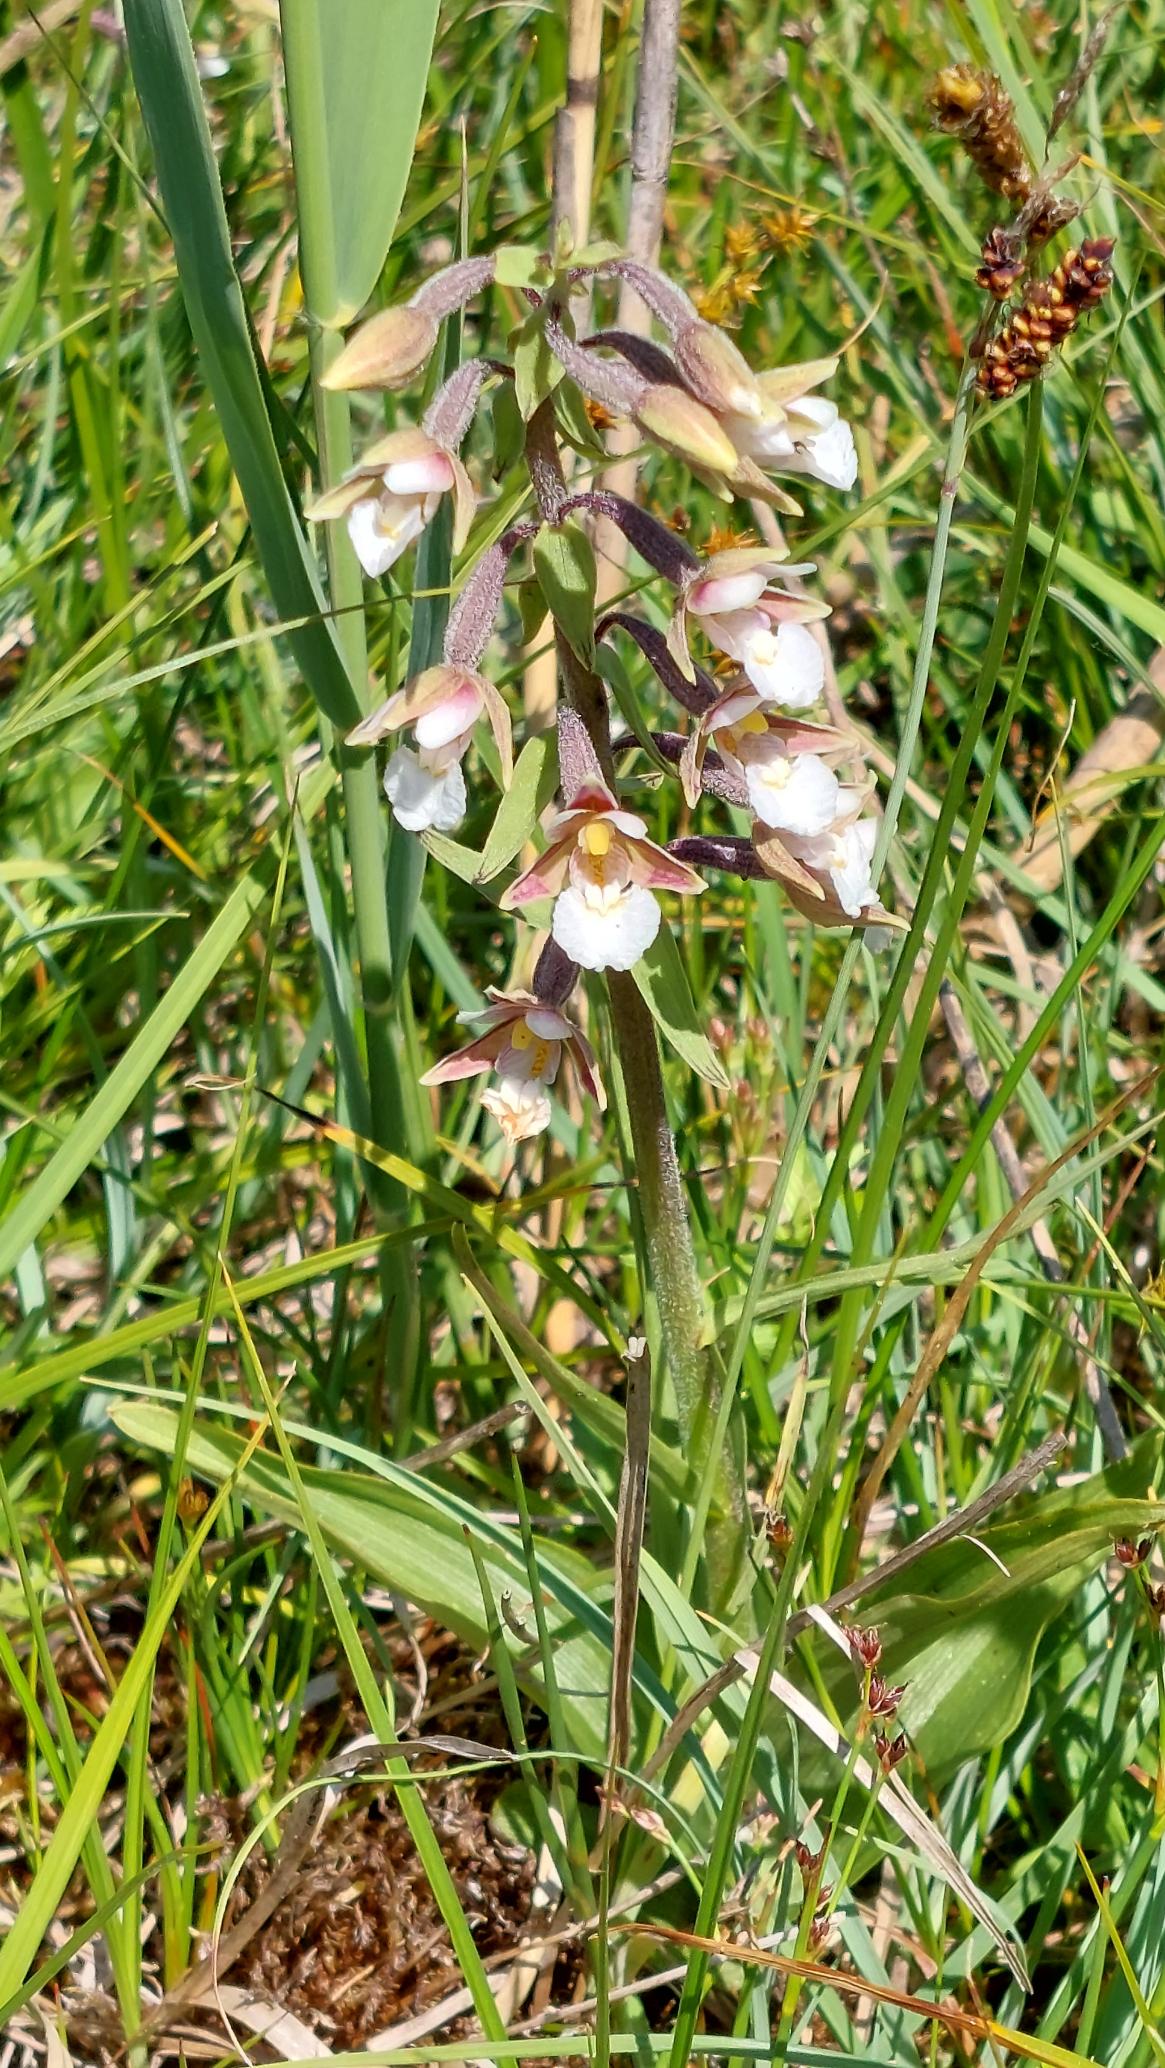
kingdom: Plantae
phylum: Tracheophyta
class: Liliopsida
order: Asparagales
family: Orchidaceae
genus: Epipactis
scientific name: Epipactis palustris
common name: Sump-hullæbe
